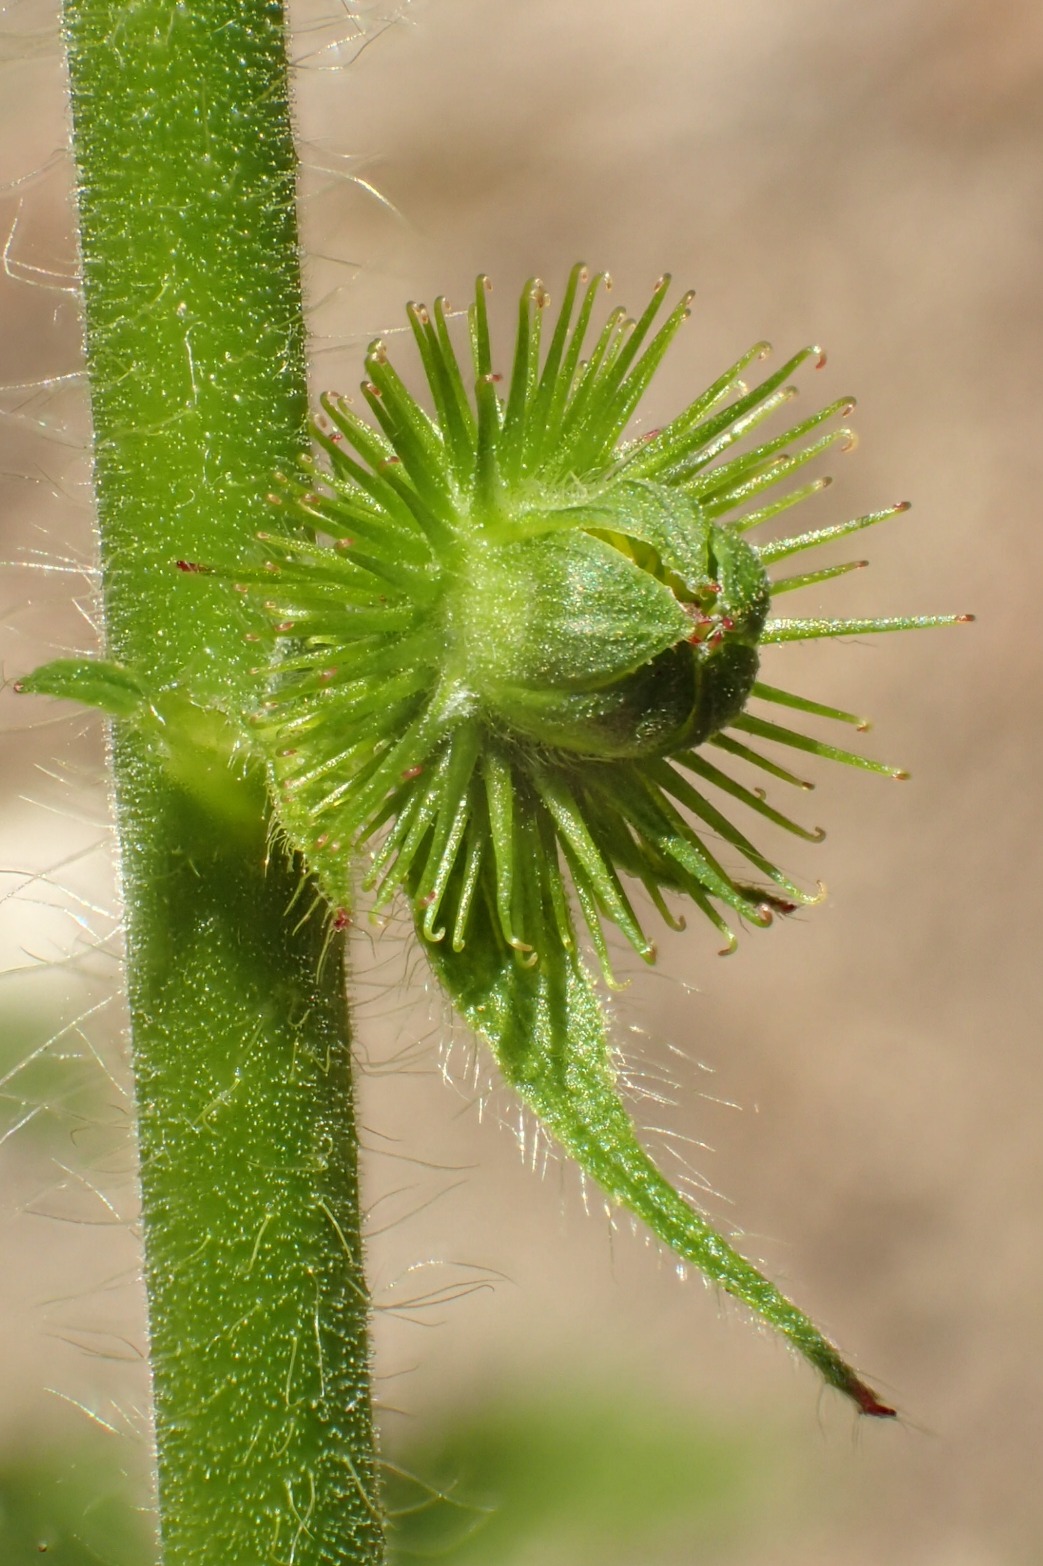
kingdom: Plantae
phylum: Tracheophyta
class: Magnoliopsida
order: Rosales
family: Rosaceae
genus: Agrimonia
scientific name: Agrimonia procera
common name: Vellugtende agermåne
